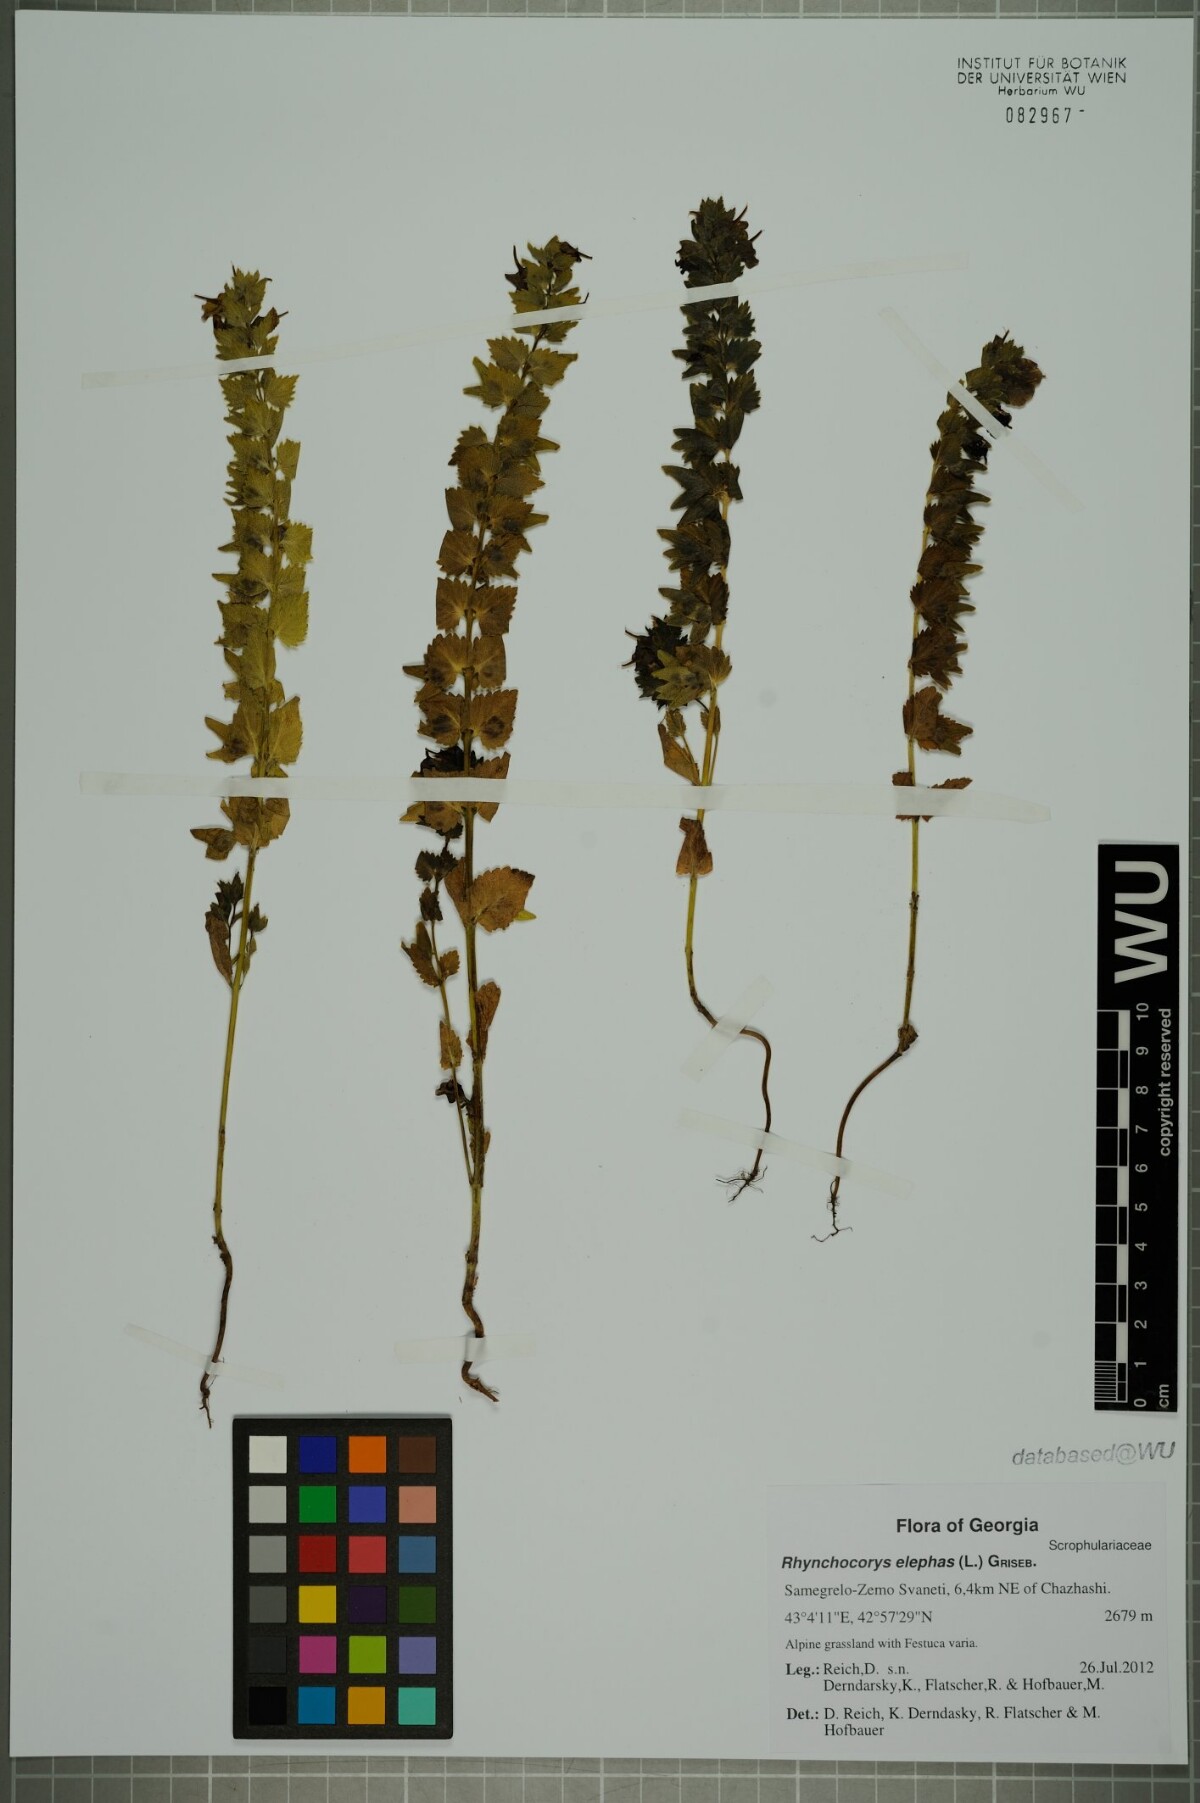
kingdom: Plantae
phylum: Tracheophyta
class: Magnoliopsida
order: Lamiales
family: Orobanchaceae
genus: Rhynchocorys
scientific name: Rhynchocorys elephas
